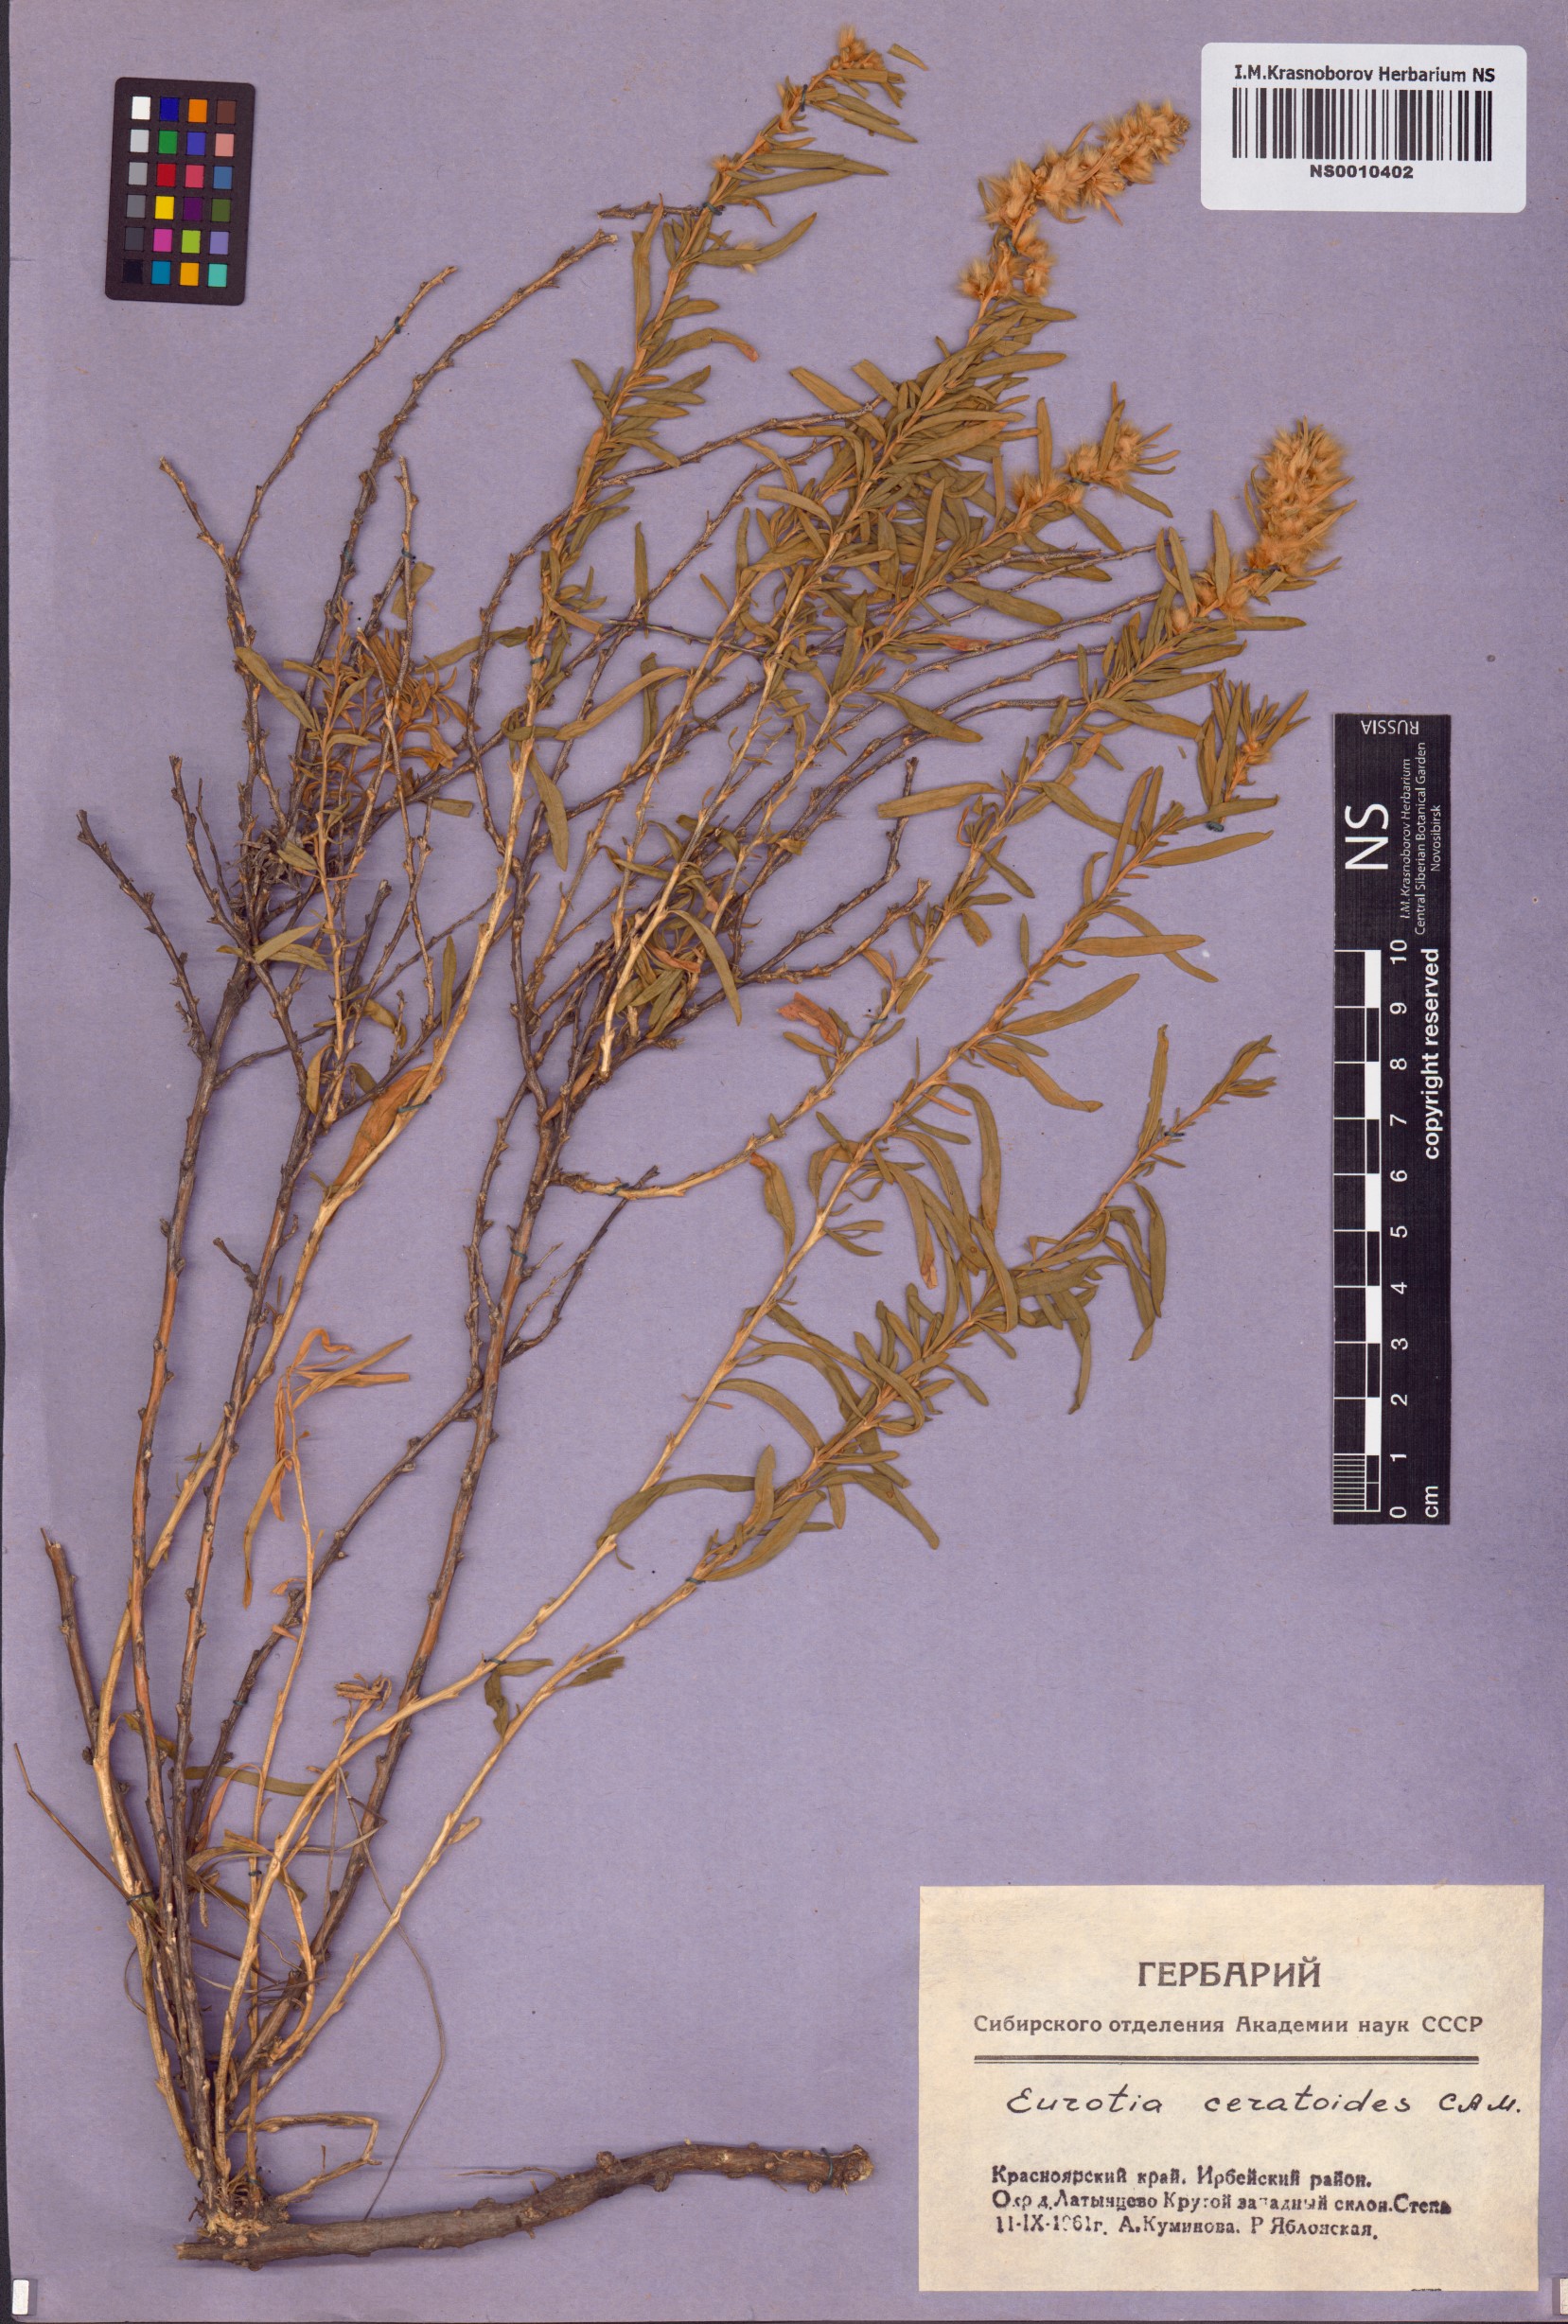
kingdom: Plantae
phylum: Tracheophyta
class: Magnoliopsida
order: Caryophyllales
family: Amaranthaceae
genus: Krascheninnikovia
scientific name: Krascheninnikovia ceratoides
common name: Pamirian winterfat
